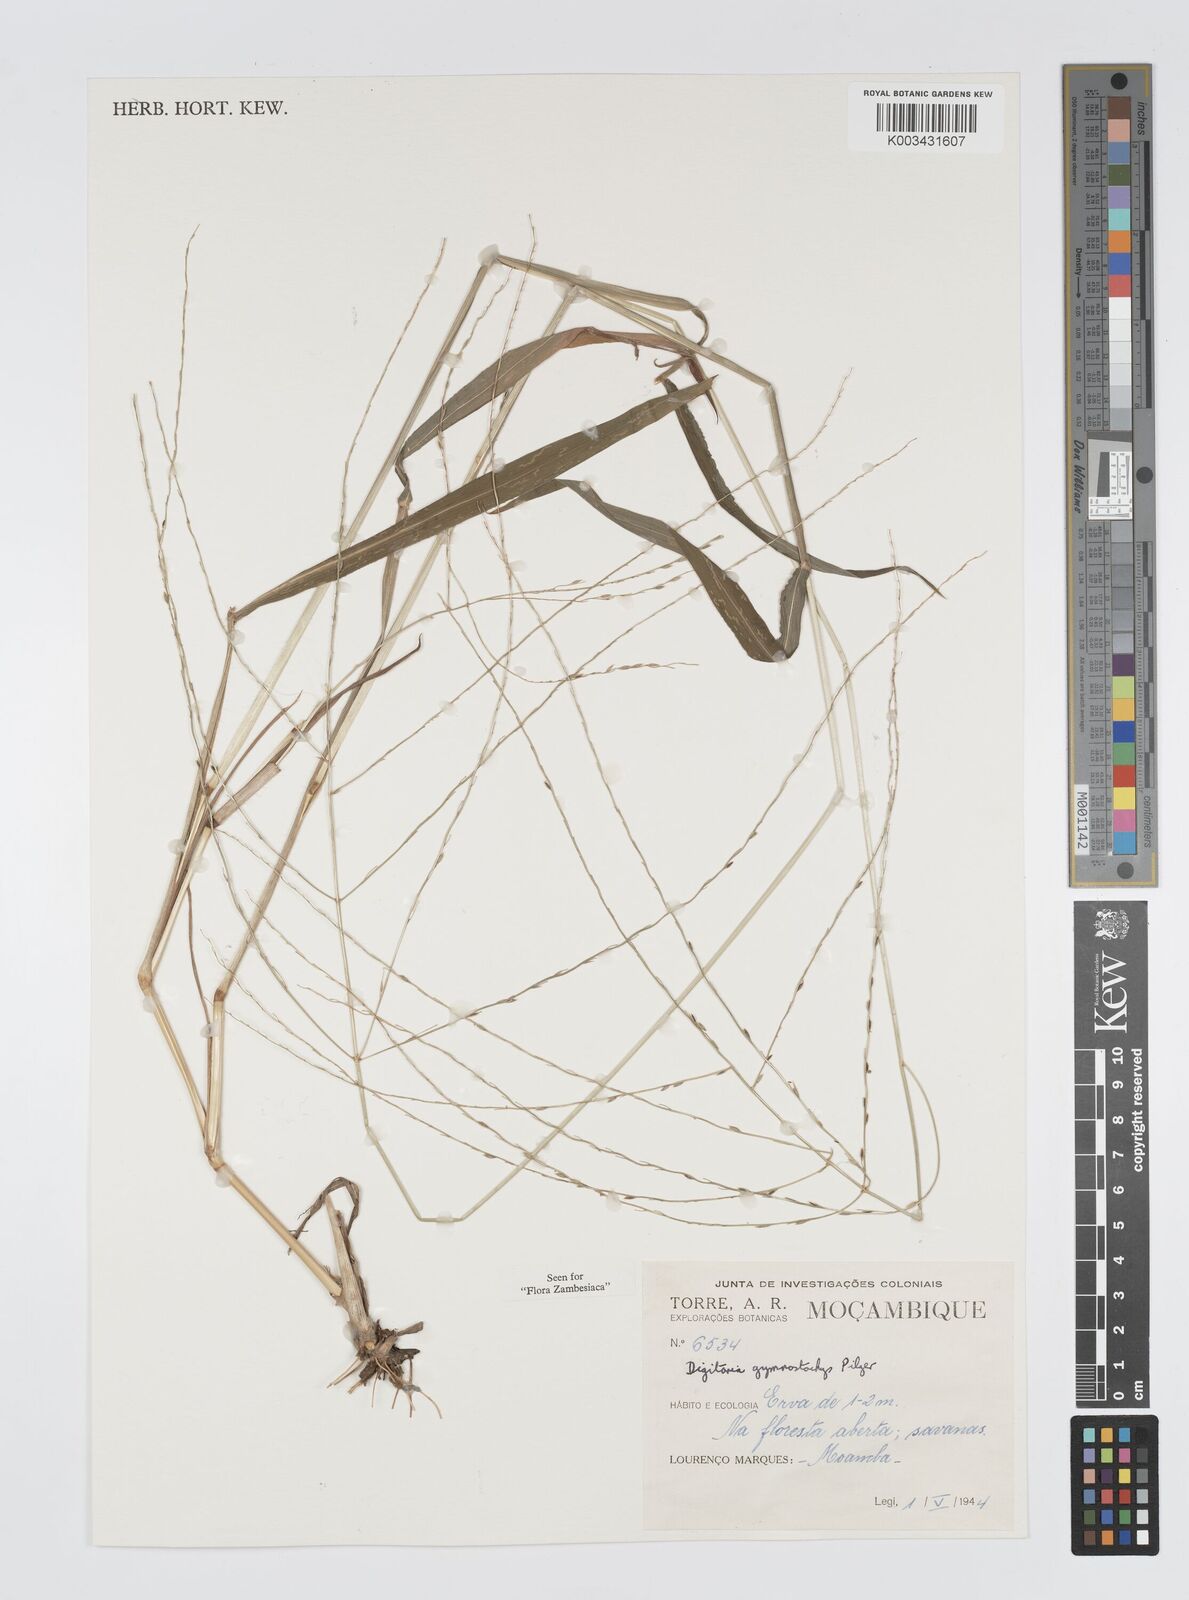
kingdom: Plantae
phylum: Tracheophyta
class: Liliopsida
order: Poales
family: Poaceae
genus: Digitaria
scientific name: Digitaria gymnostachys
